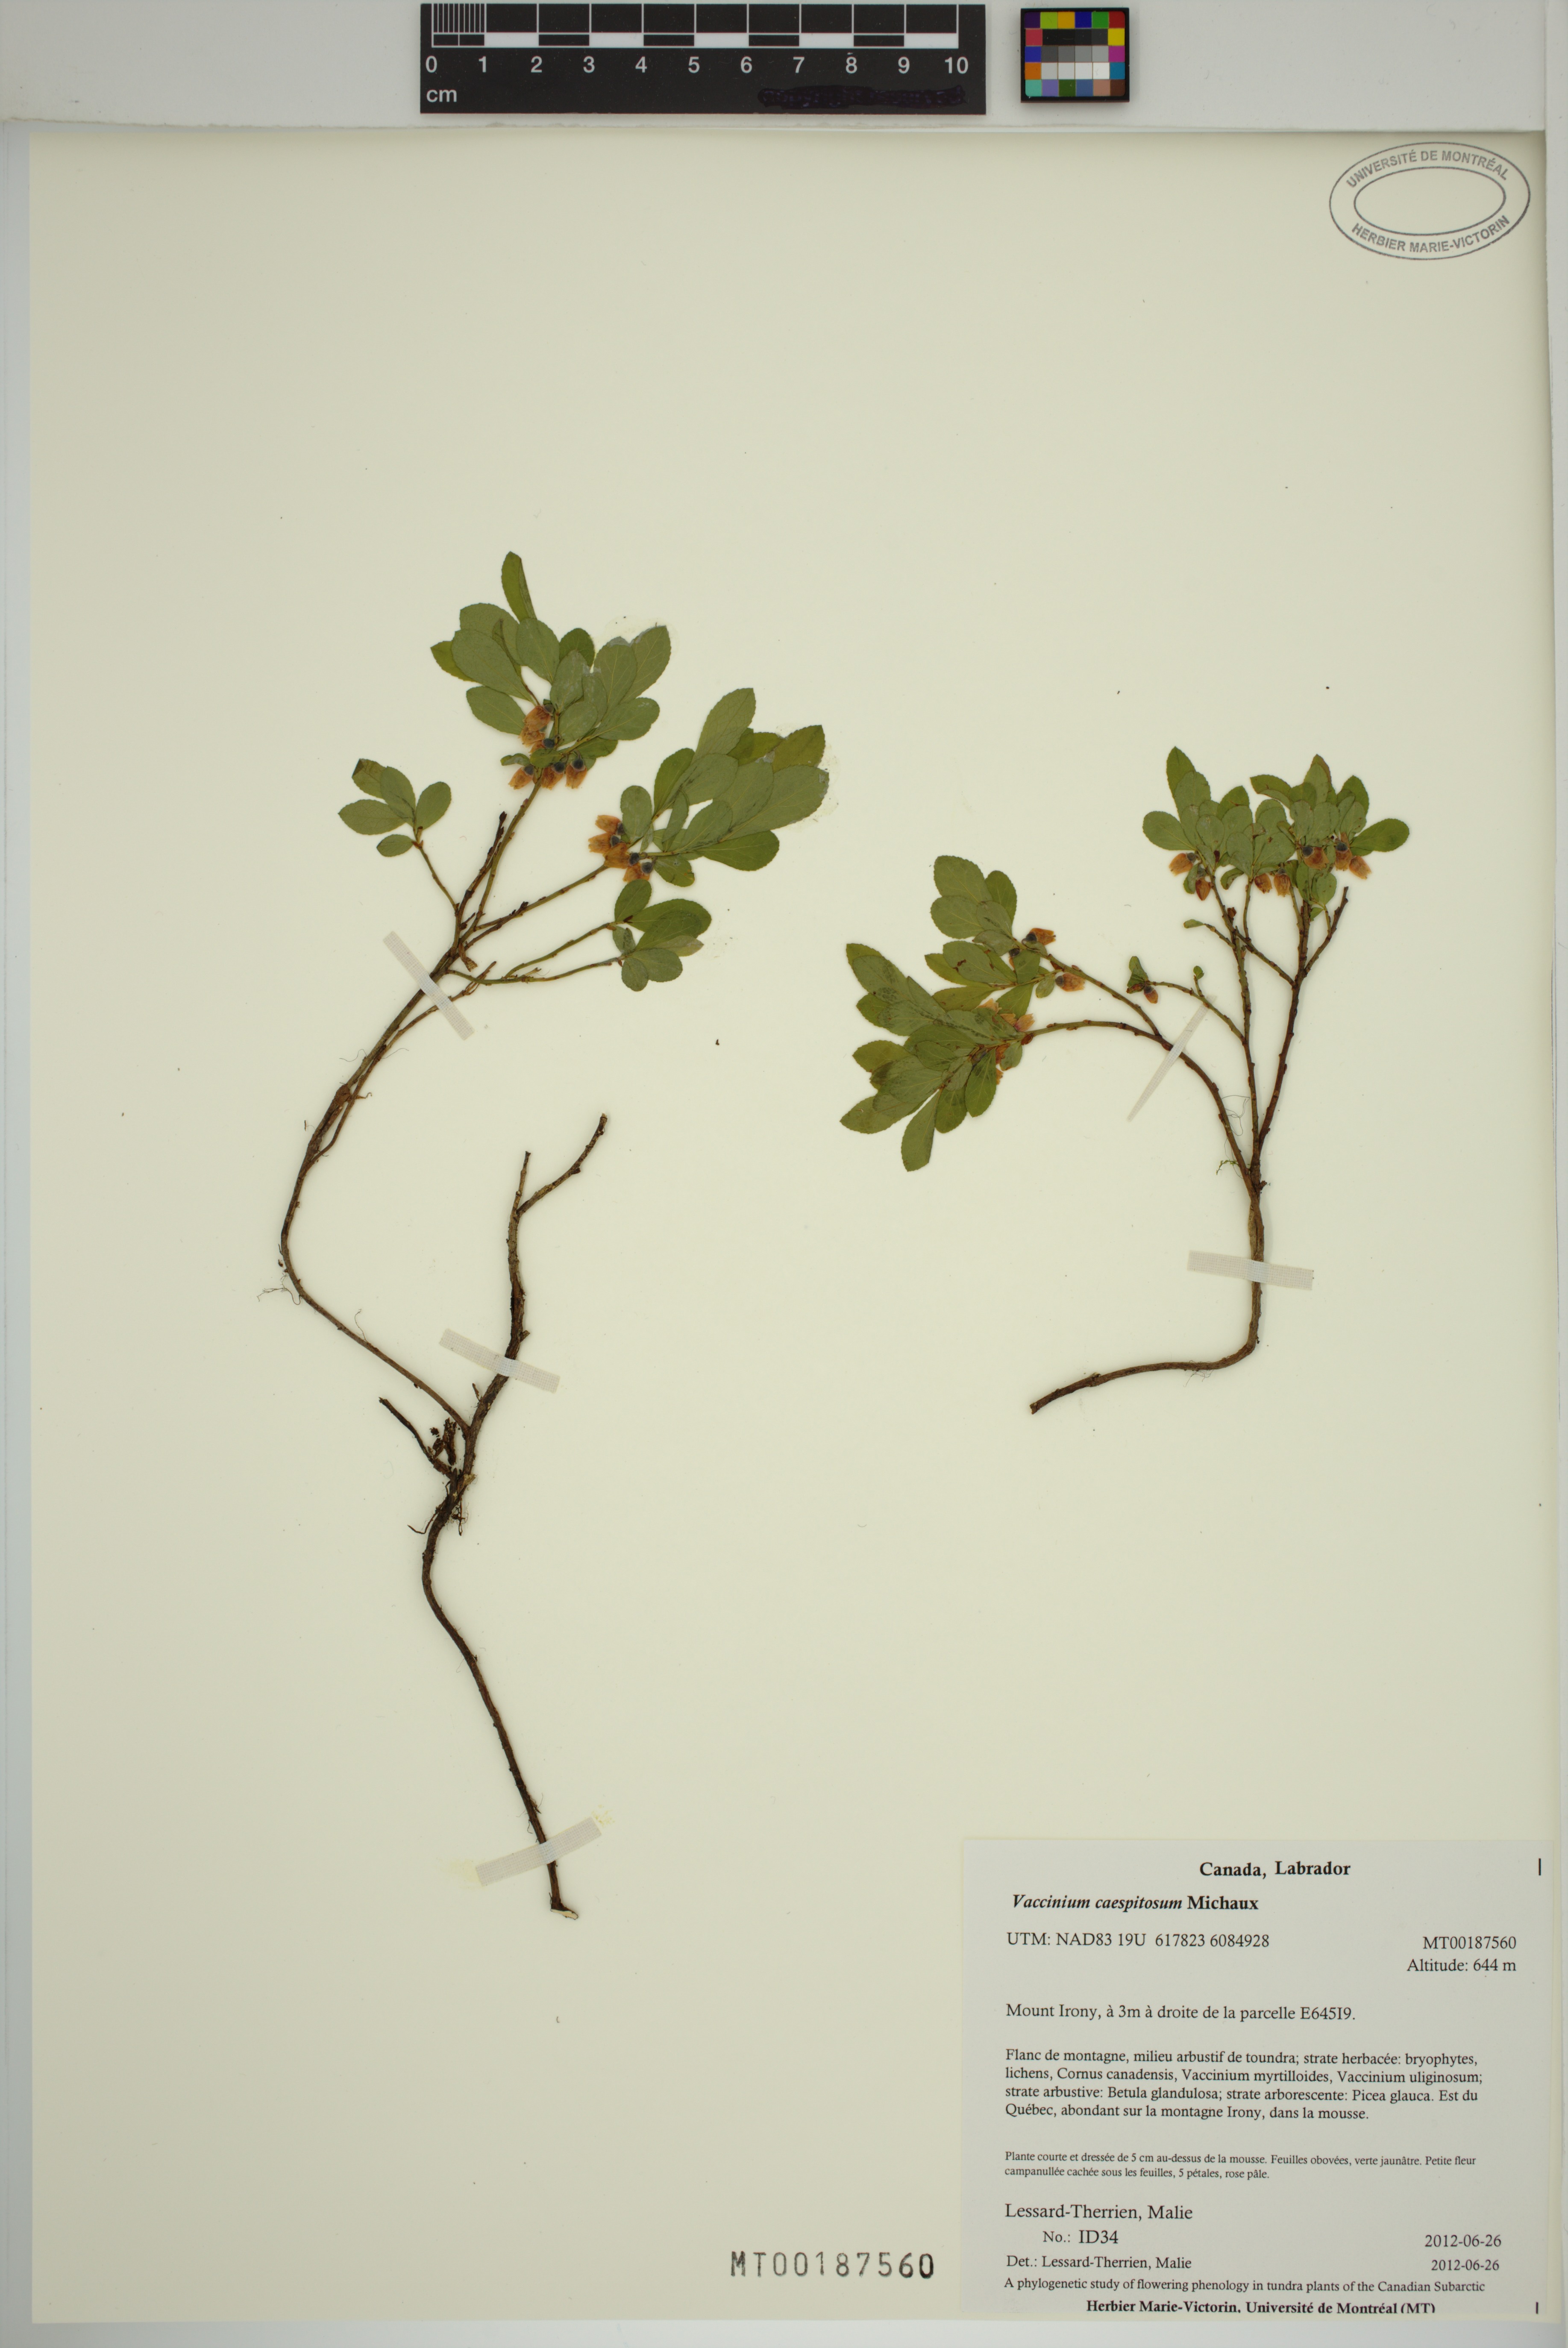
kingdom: Plantae
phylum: Tracheophyta
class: Magnoliopsida
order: Ericales
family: Ericaceae
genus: Vaccinium
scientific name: Vaccinium cespitosum
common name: Dwarf bilberry
